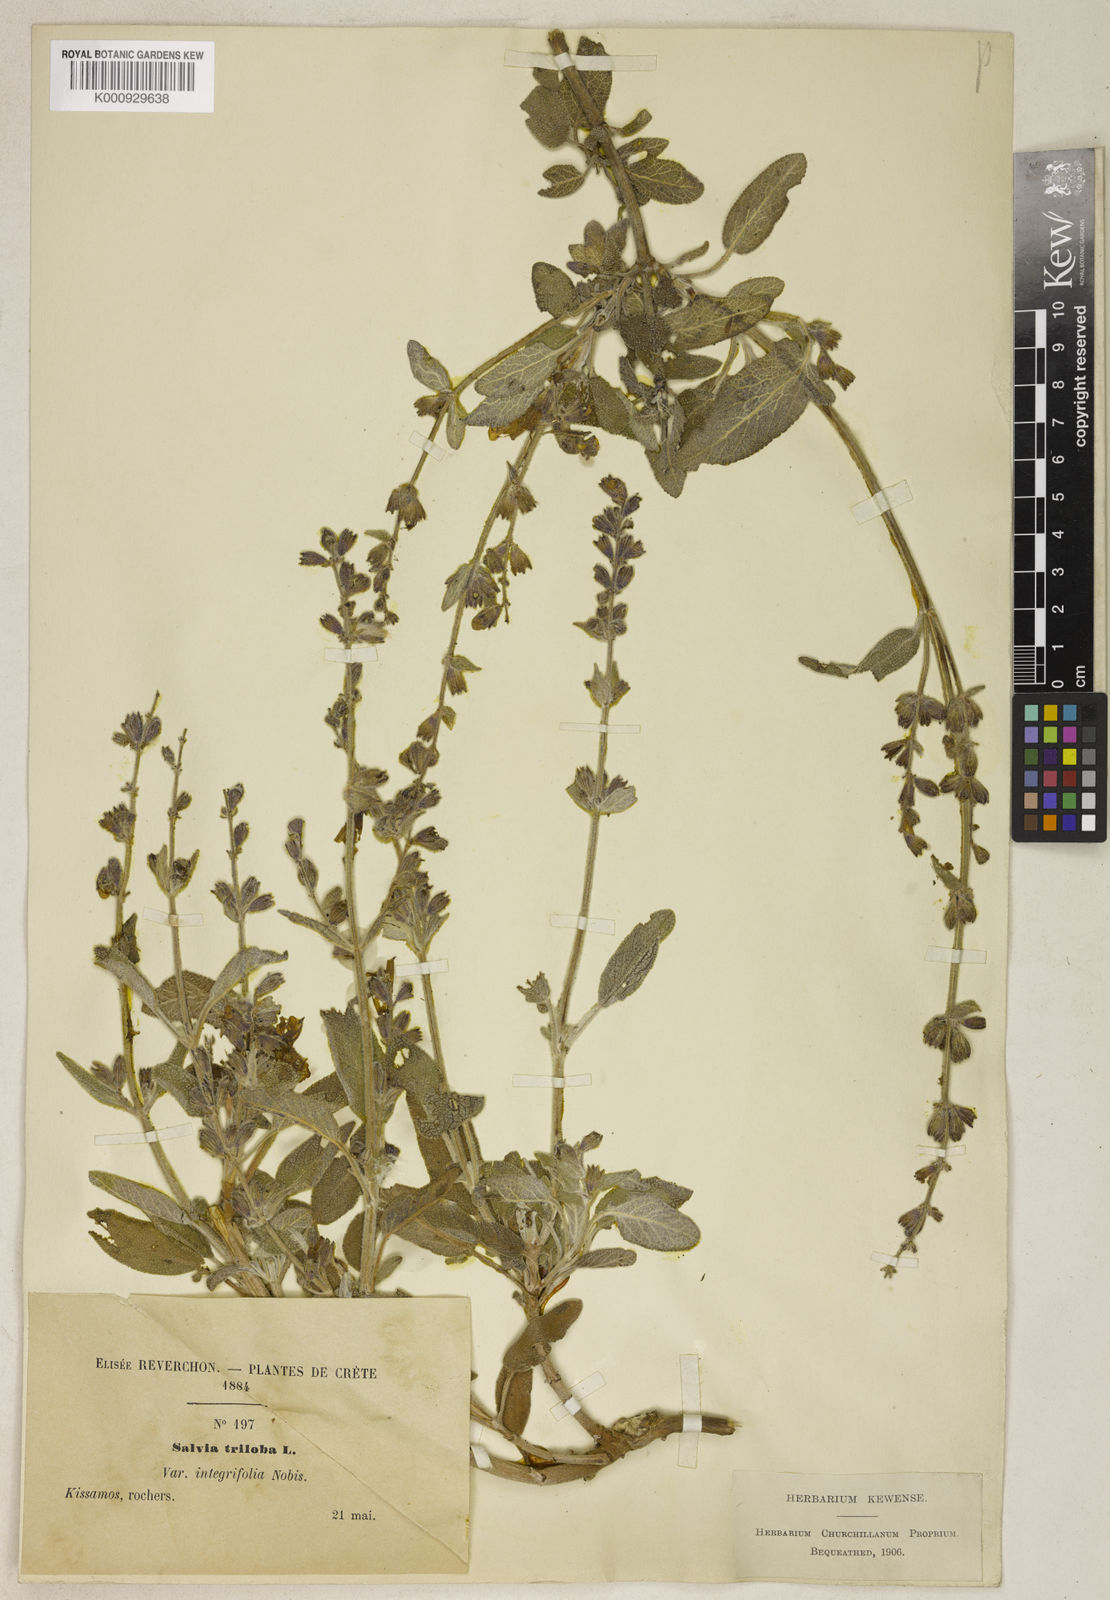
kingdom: Plantae
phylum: Tracheophyta
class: Magnoliopsida
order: Lamiales
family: Lamiaceae
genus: Salvia
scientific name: Salvia fruticosa
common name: Greek sage
